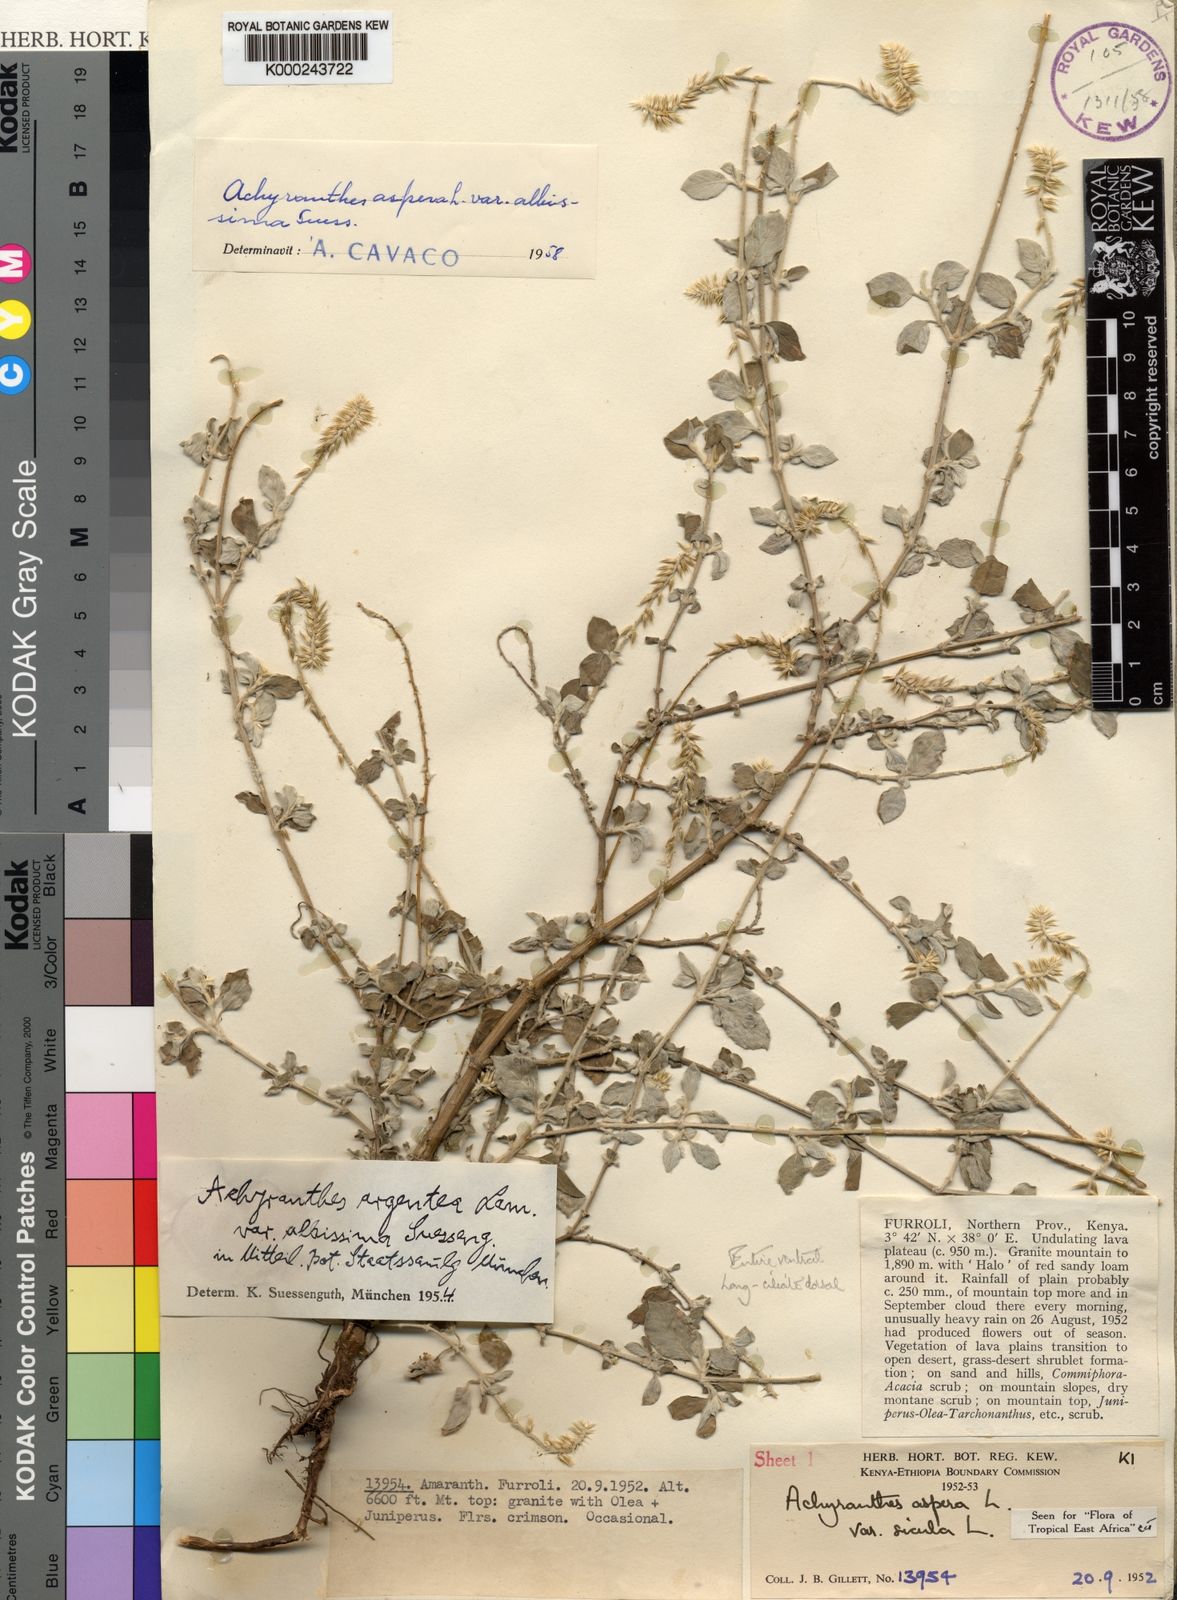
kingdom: Plantae
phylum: Tracheophyta
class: Magnoliopsida
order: Caryophyllales
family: Amaranthaceae
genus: Achyranthes
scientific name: Achyranthes sicula
